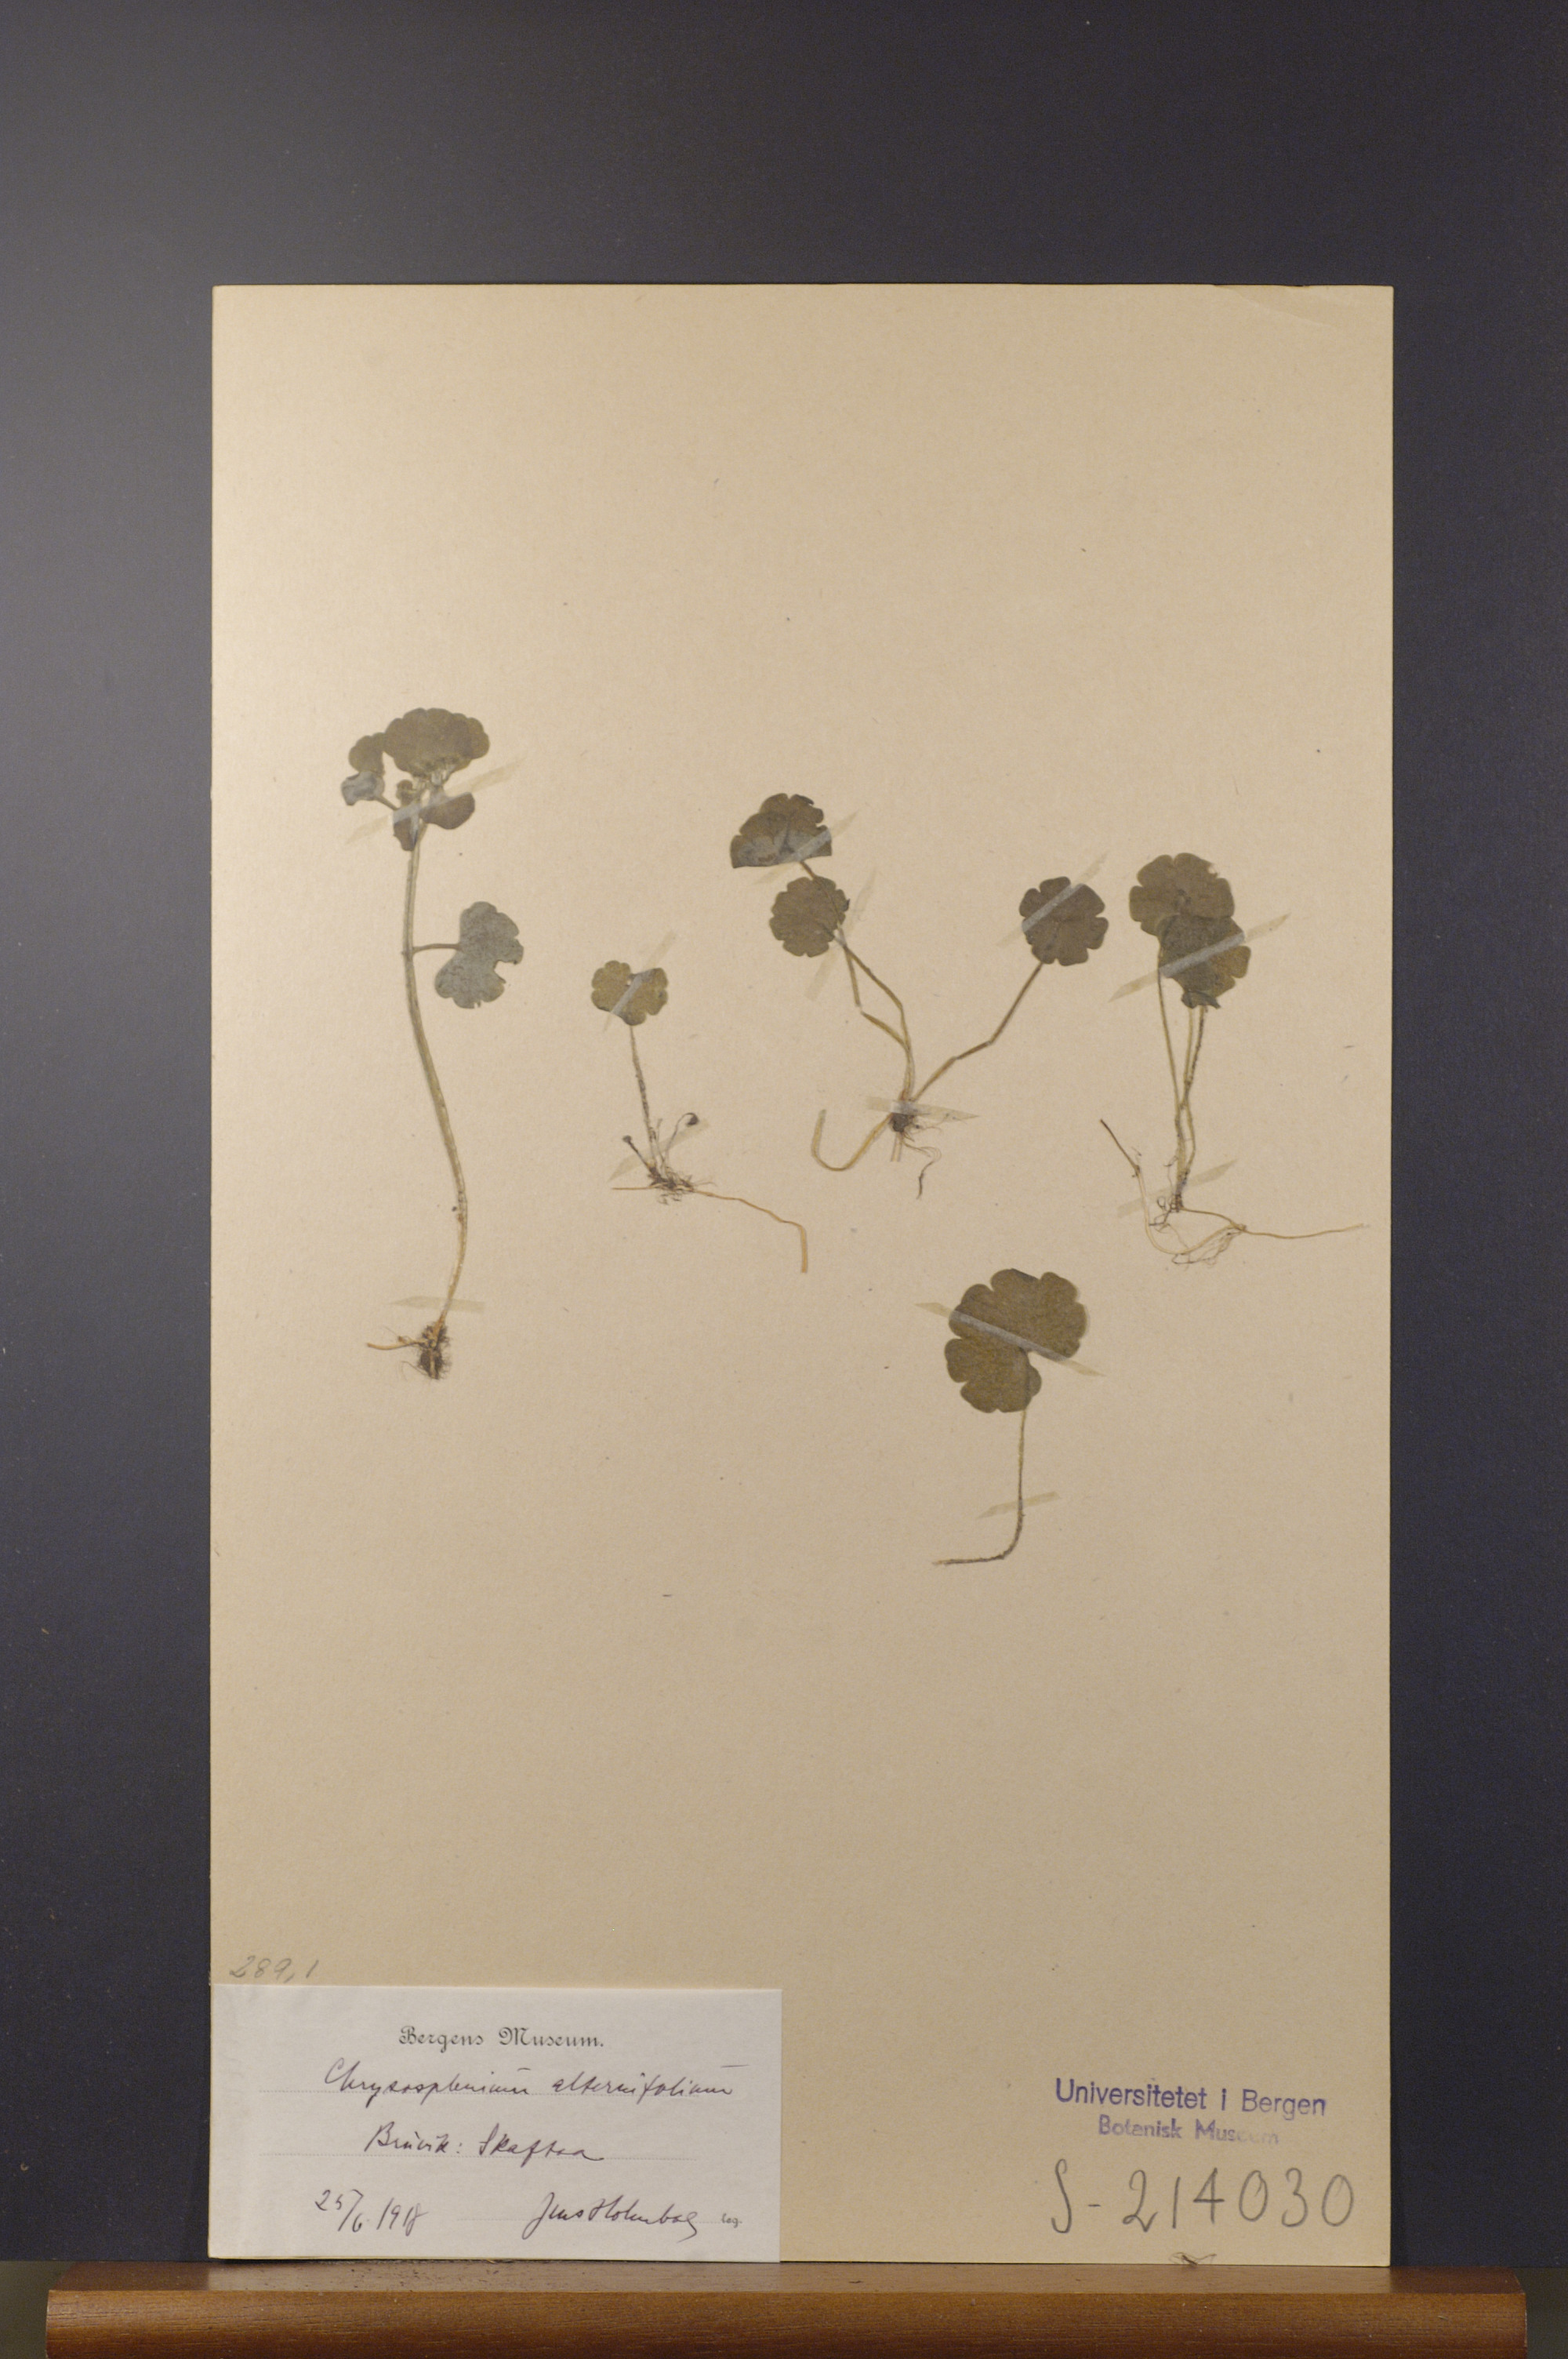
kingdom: Plantae
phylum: Tracheophyta
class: Magnoliopsida
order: Saxifragales
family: Saxifragaceae
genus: Chrysosplenium
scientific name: Chrysosplenium alternifolium
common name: Alternate-leaved golden-saxifrage
